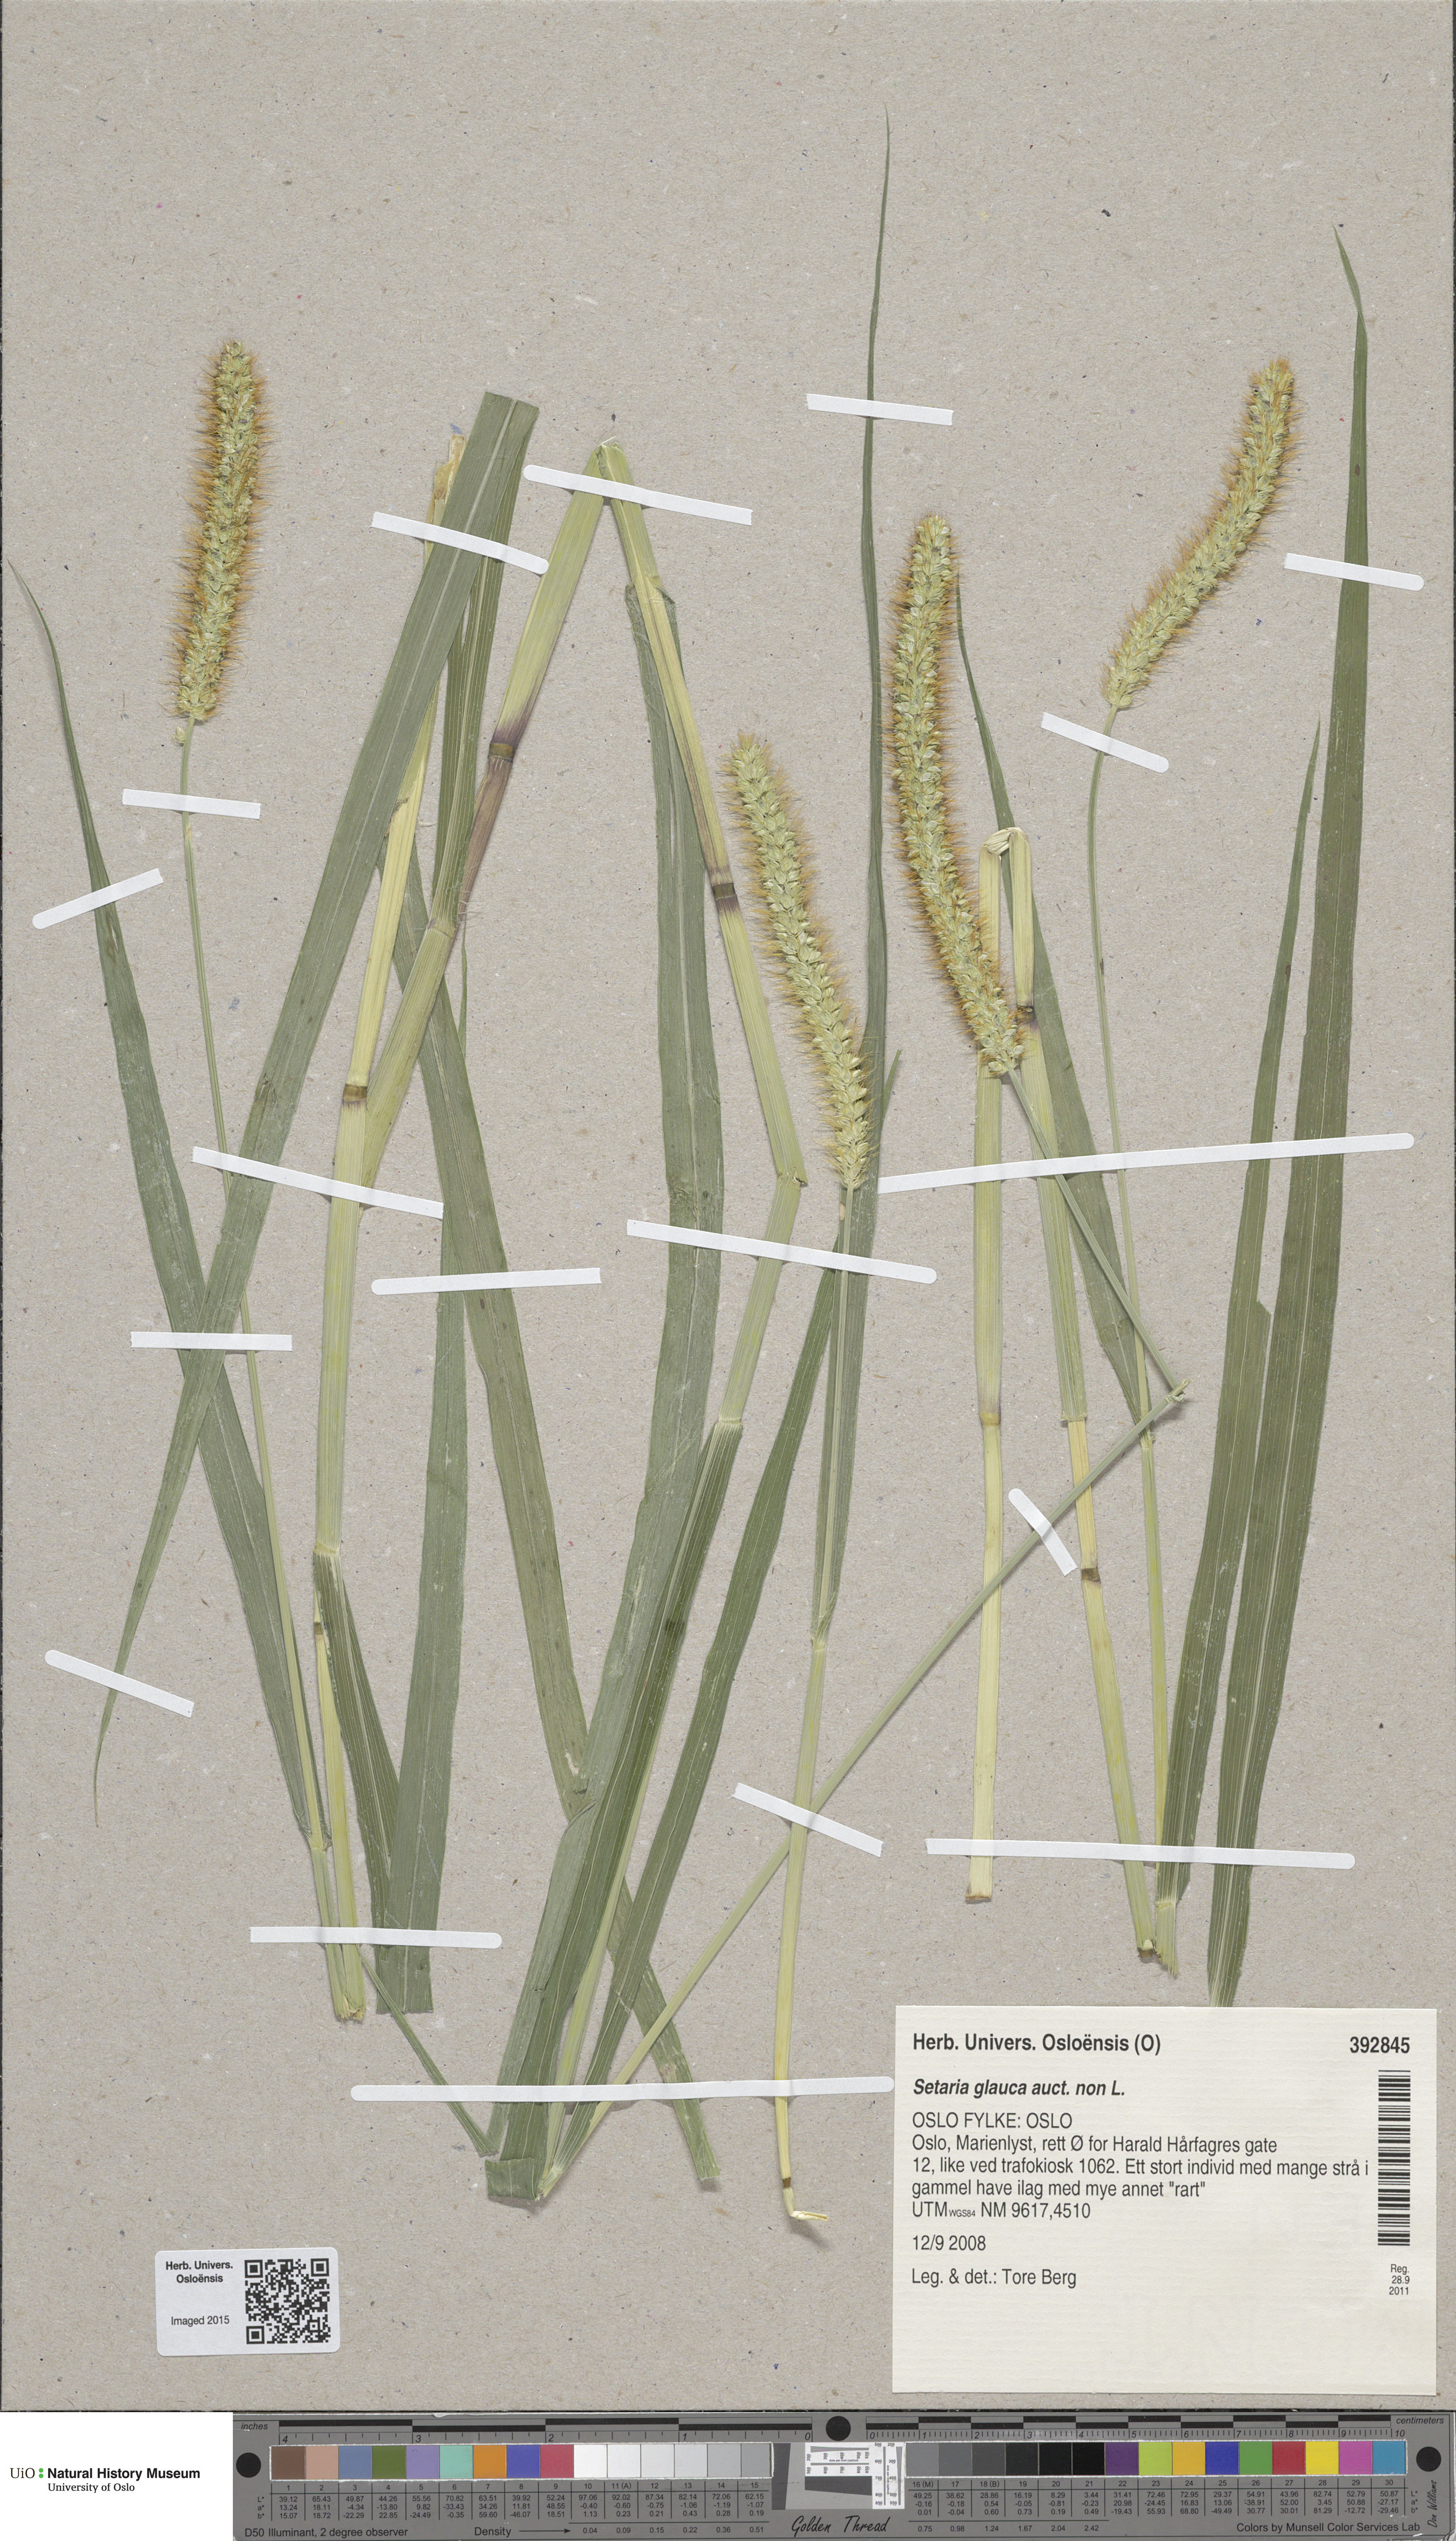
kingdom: Plantae
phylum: Tracheophyta
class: Liliopsida
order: Poales
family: Poaceae
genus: Setaria
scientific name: Setaria pumila
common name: Yellow bristle-grass
